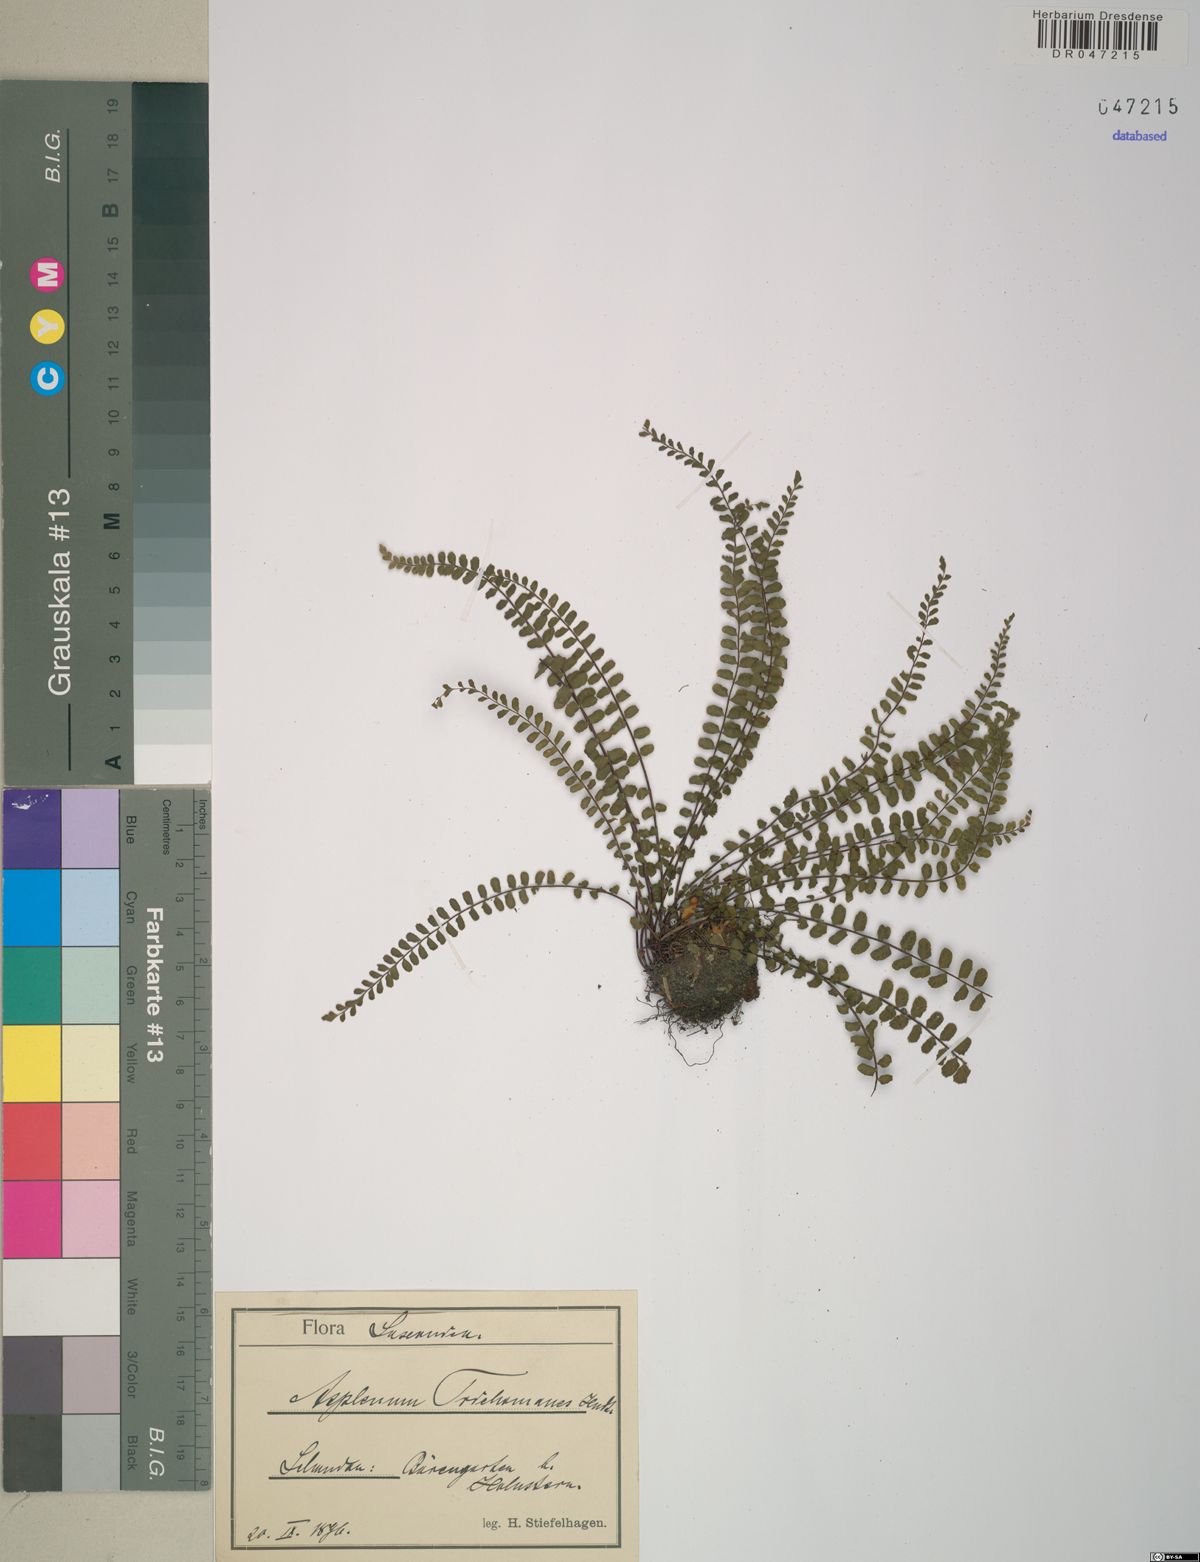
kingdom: Plantae
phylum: Tracheophyta
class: Polypodiopsida
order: Polypodiales
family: Aspleniaceae
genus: Asplenium
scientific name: Asplenium trichomanes
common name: Maidenhair spleenwort
